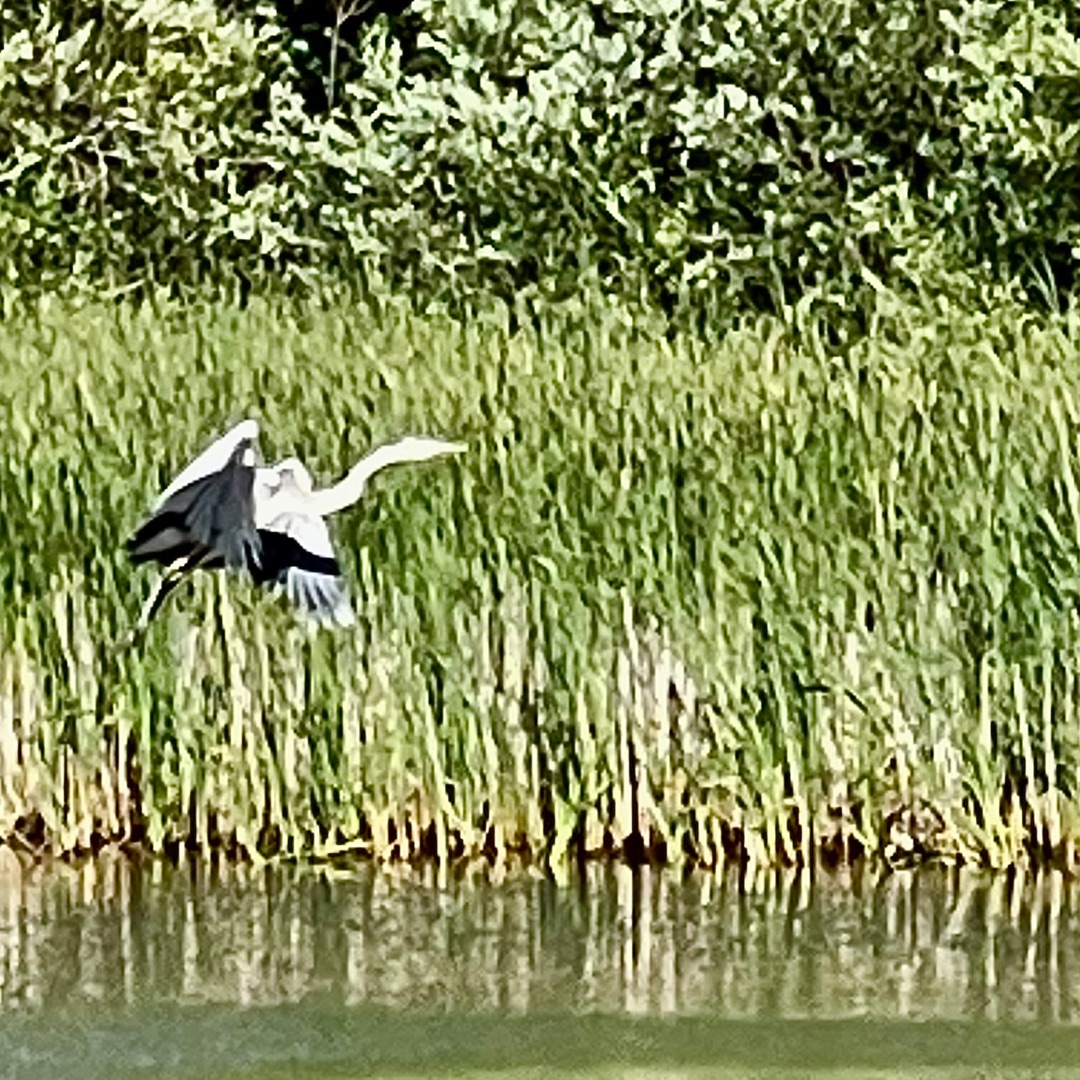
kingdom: Animalia
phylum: Chordata
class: Aves
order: Pelecaniformes
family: Ardeidae
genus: Ardea
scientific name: Ardea cinerea
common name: Fiskehejre
